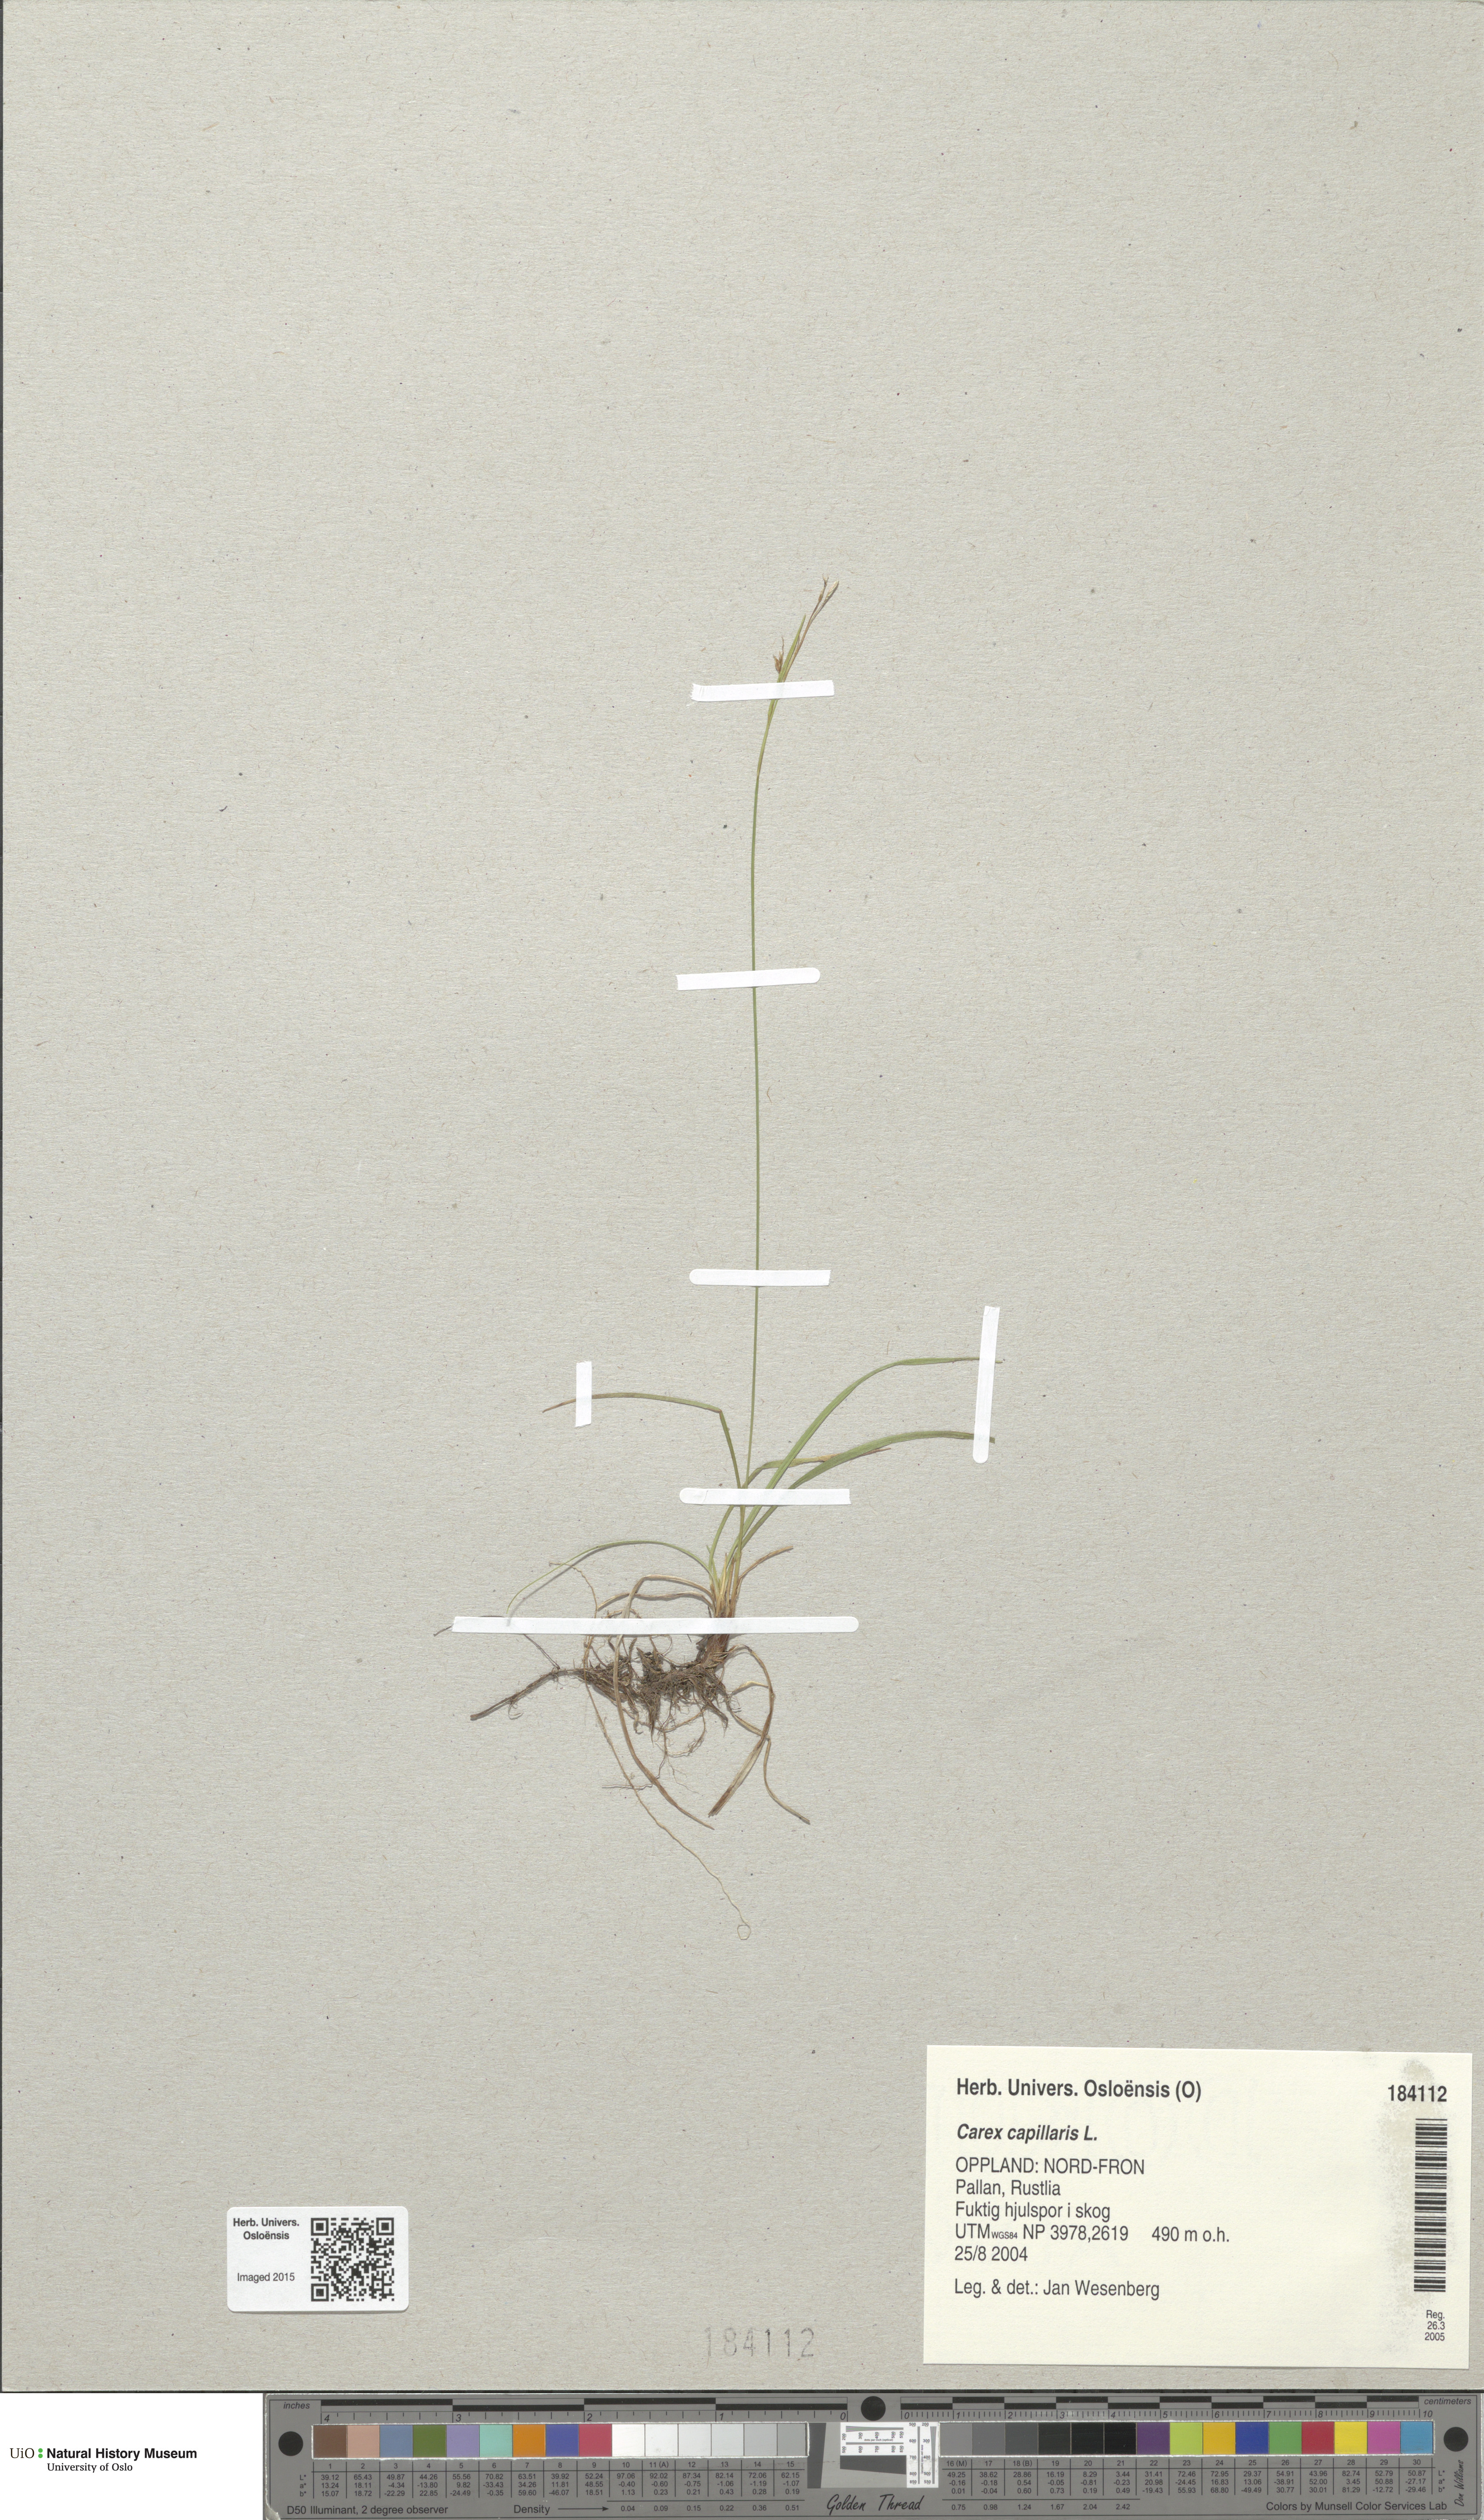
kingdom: Plantae
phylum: Tracheophyta
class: Liliopsida
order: Poales
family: Cyperaceae
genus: Carex
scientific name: Carex capillaris
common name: Hair sedge
